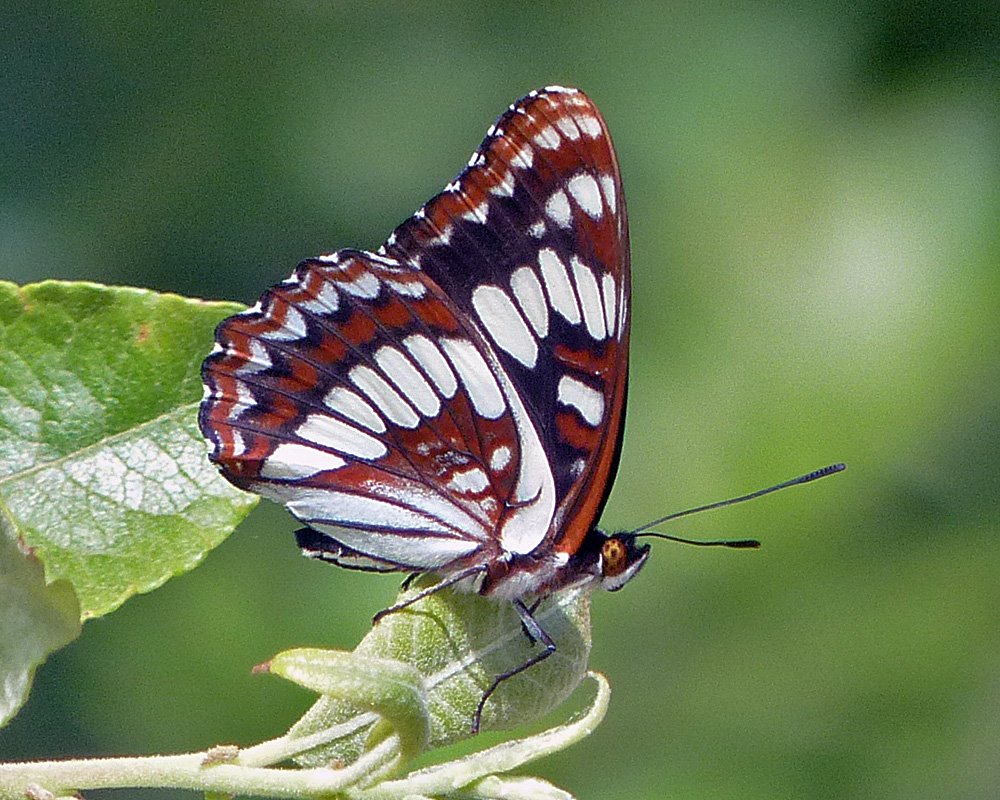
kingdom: Animalia
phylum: Arthropoda
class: Insecta
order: Lepidoptera
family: Nymphalidae
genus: Limenitis
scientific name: Limenitis lorquini
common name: Lorquin's Admiral
